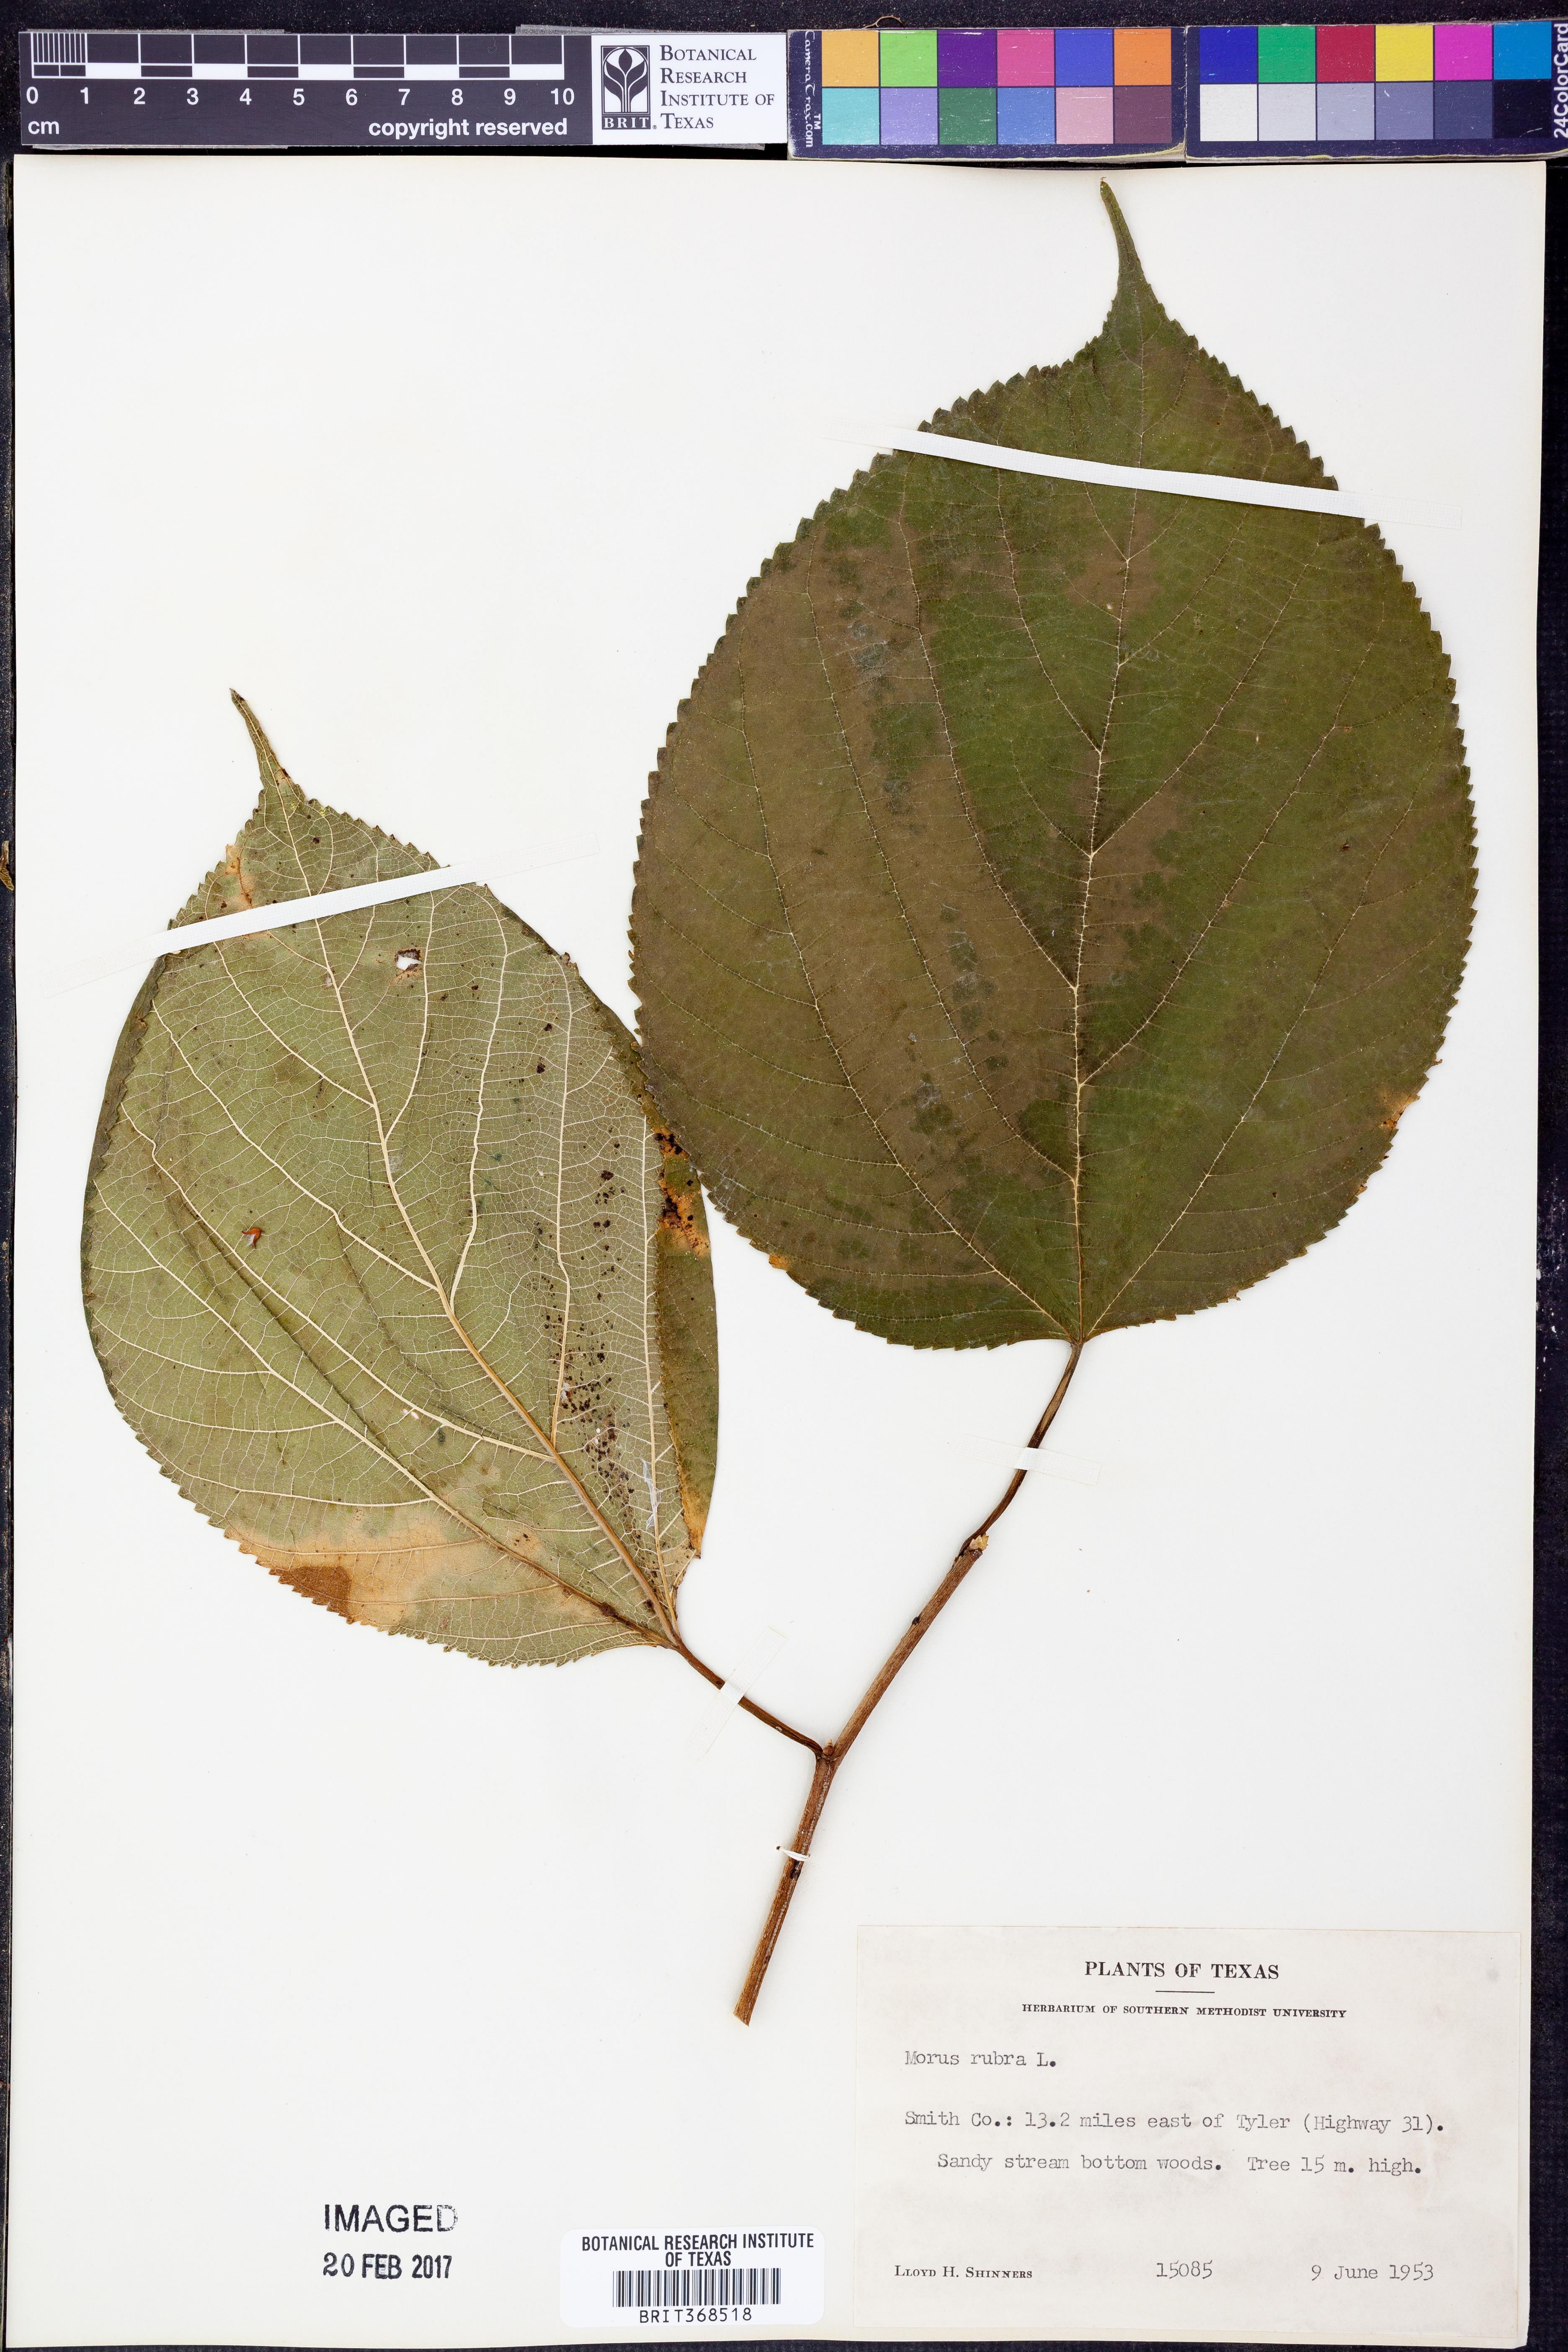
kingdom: Plantae
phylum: Tracheophyta
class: Magnoliopsida
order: Rosales
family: Moraceae
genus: Morus
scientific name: Morus rubra
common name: Red mulberry
